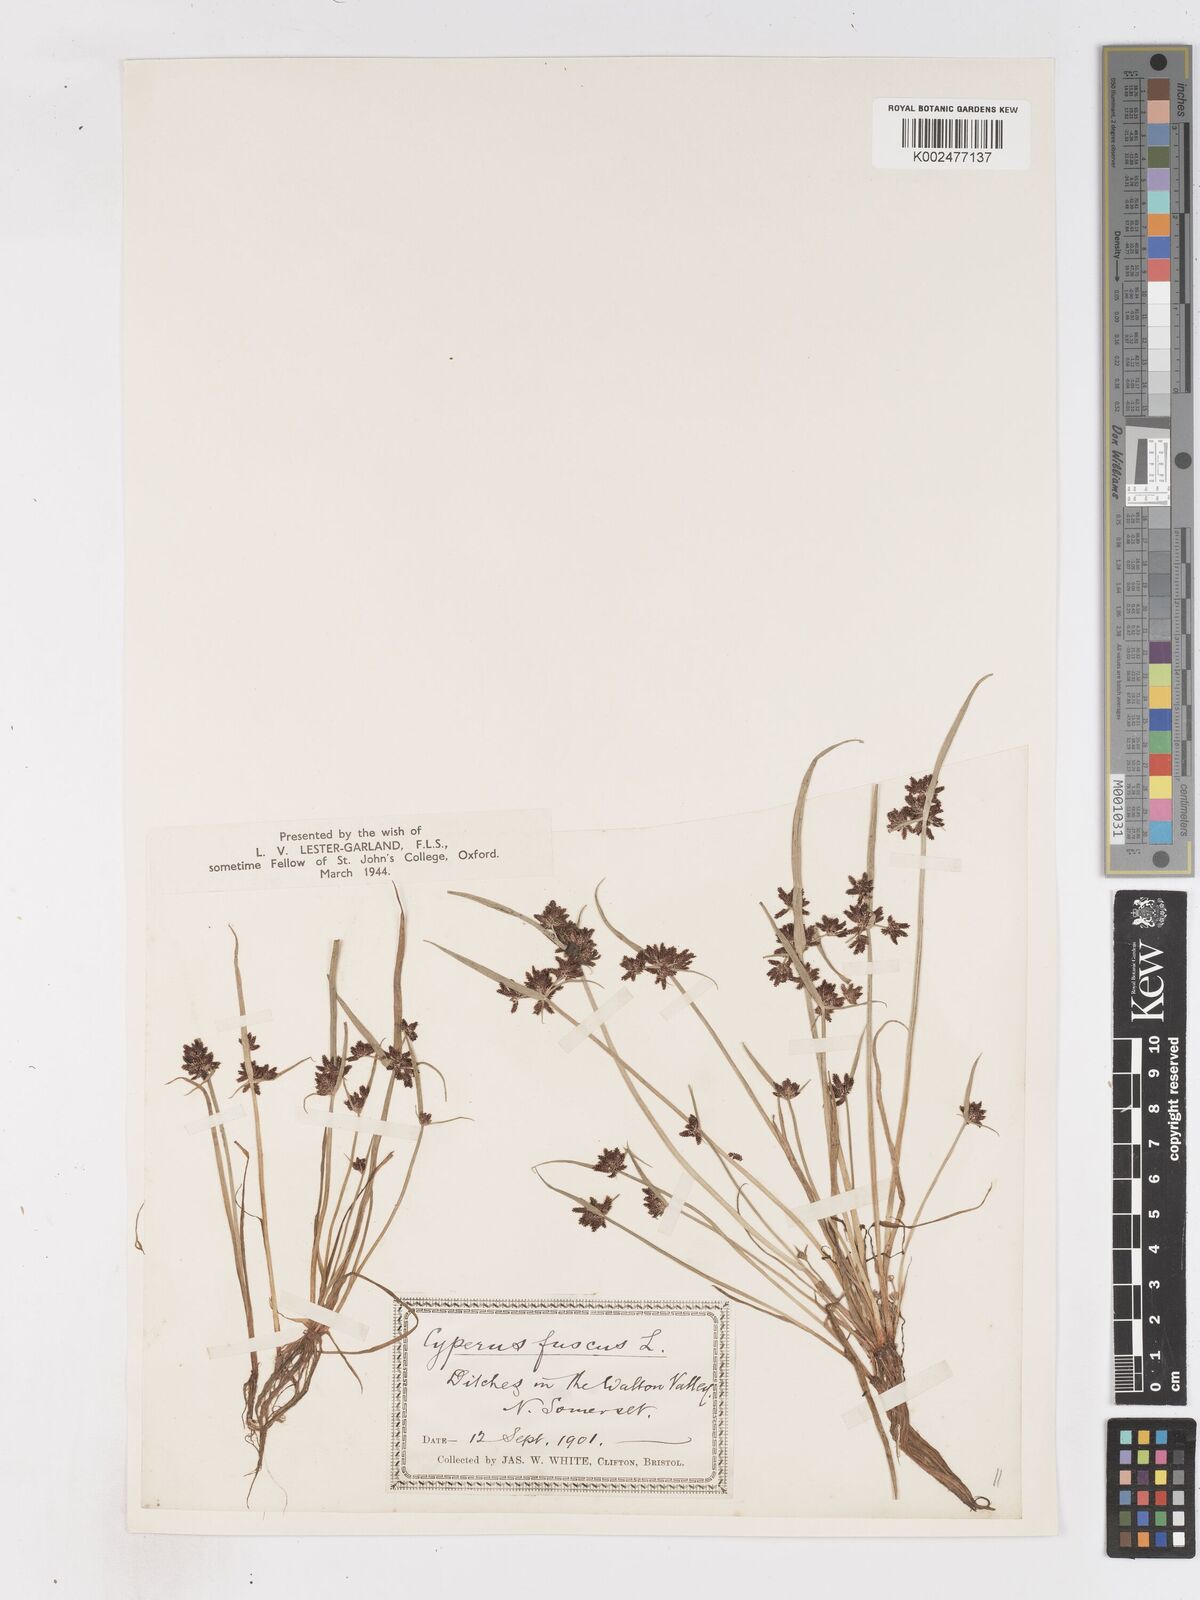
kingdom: Plantae
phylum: Tracheophyta
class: Liliopsida
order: Poales
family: Cyperaceae
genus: Cyperus
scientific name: Cyperus fuscus
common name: Brown galingale
